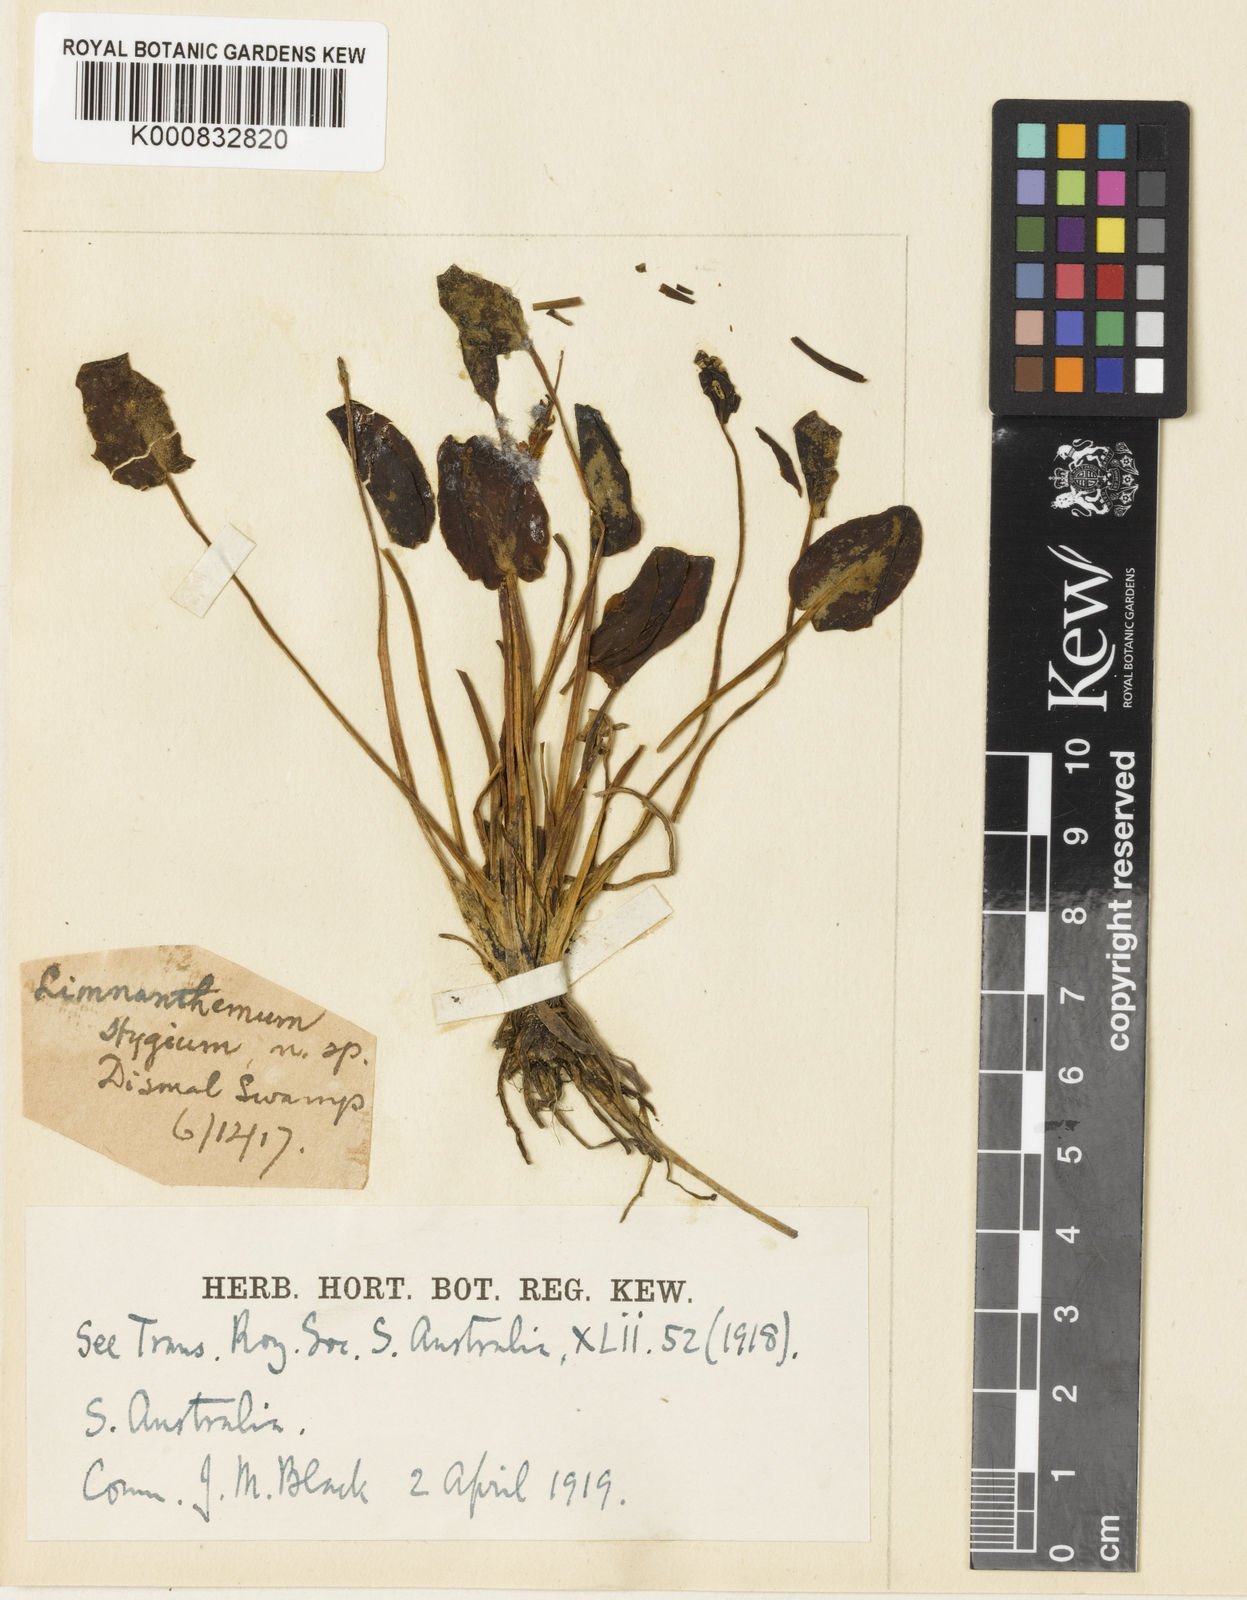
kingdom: Plantae
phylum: Tracheophyta
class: Magnoliopsida
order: Asterales
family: Menyanthaceae
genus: Ornduffia
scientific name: Ornduffia umbricola
